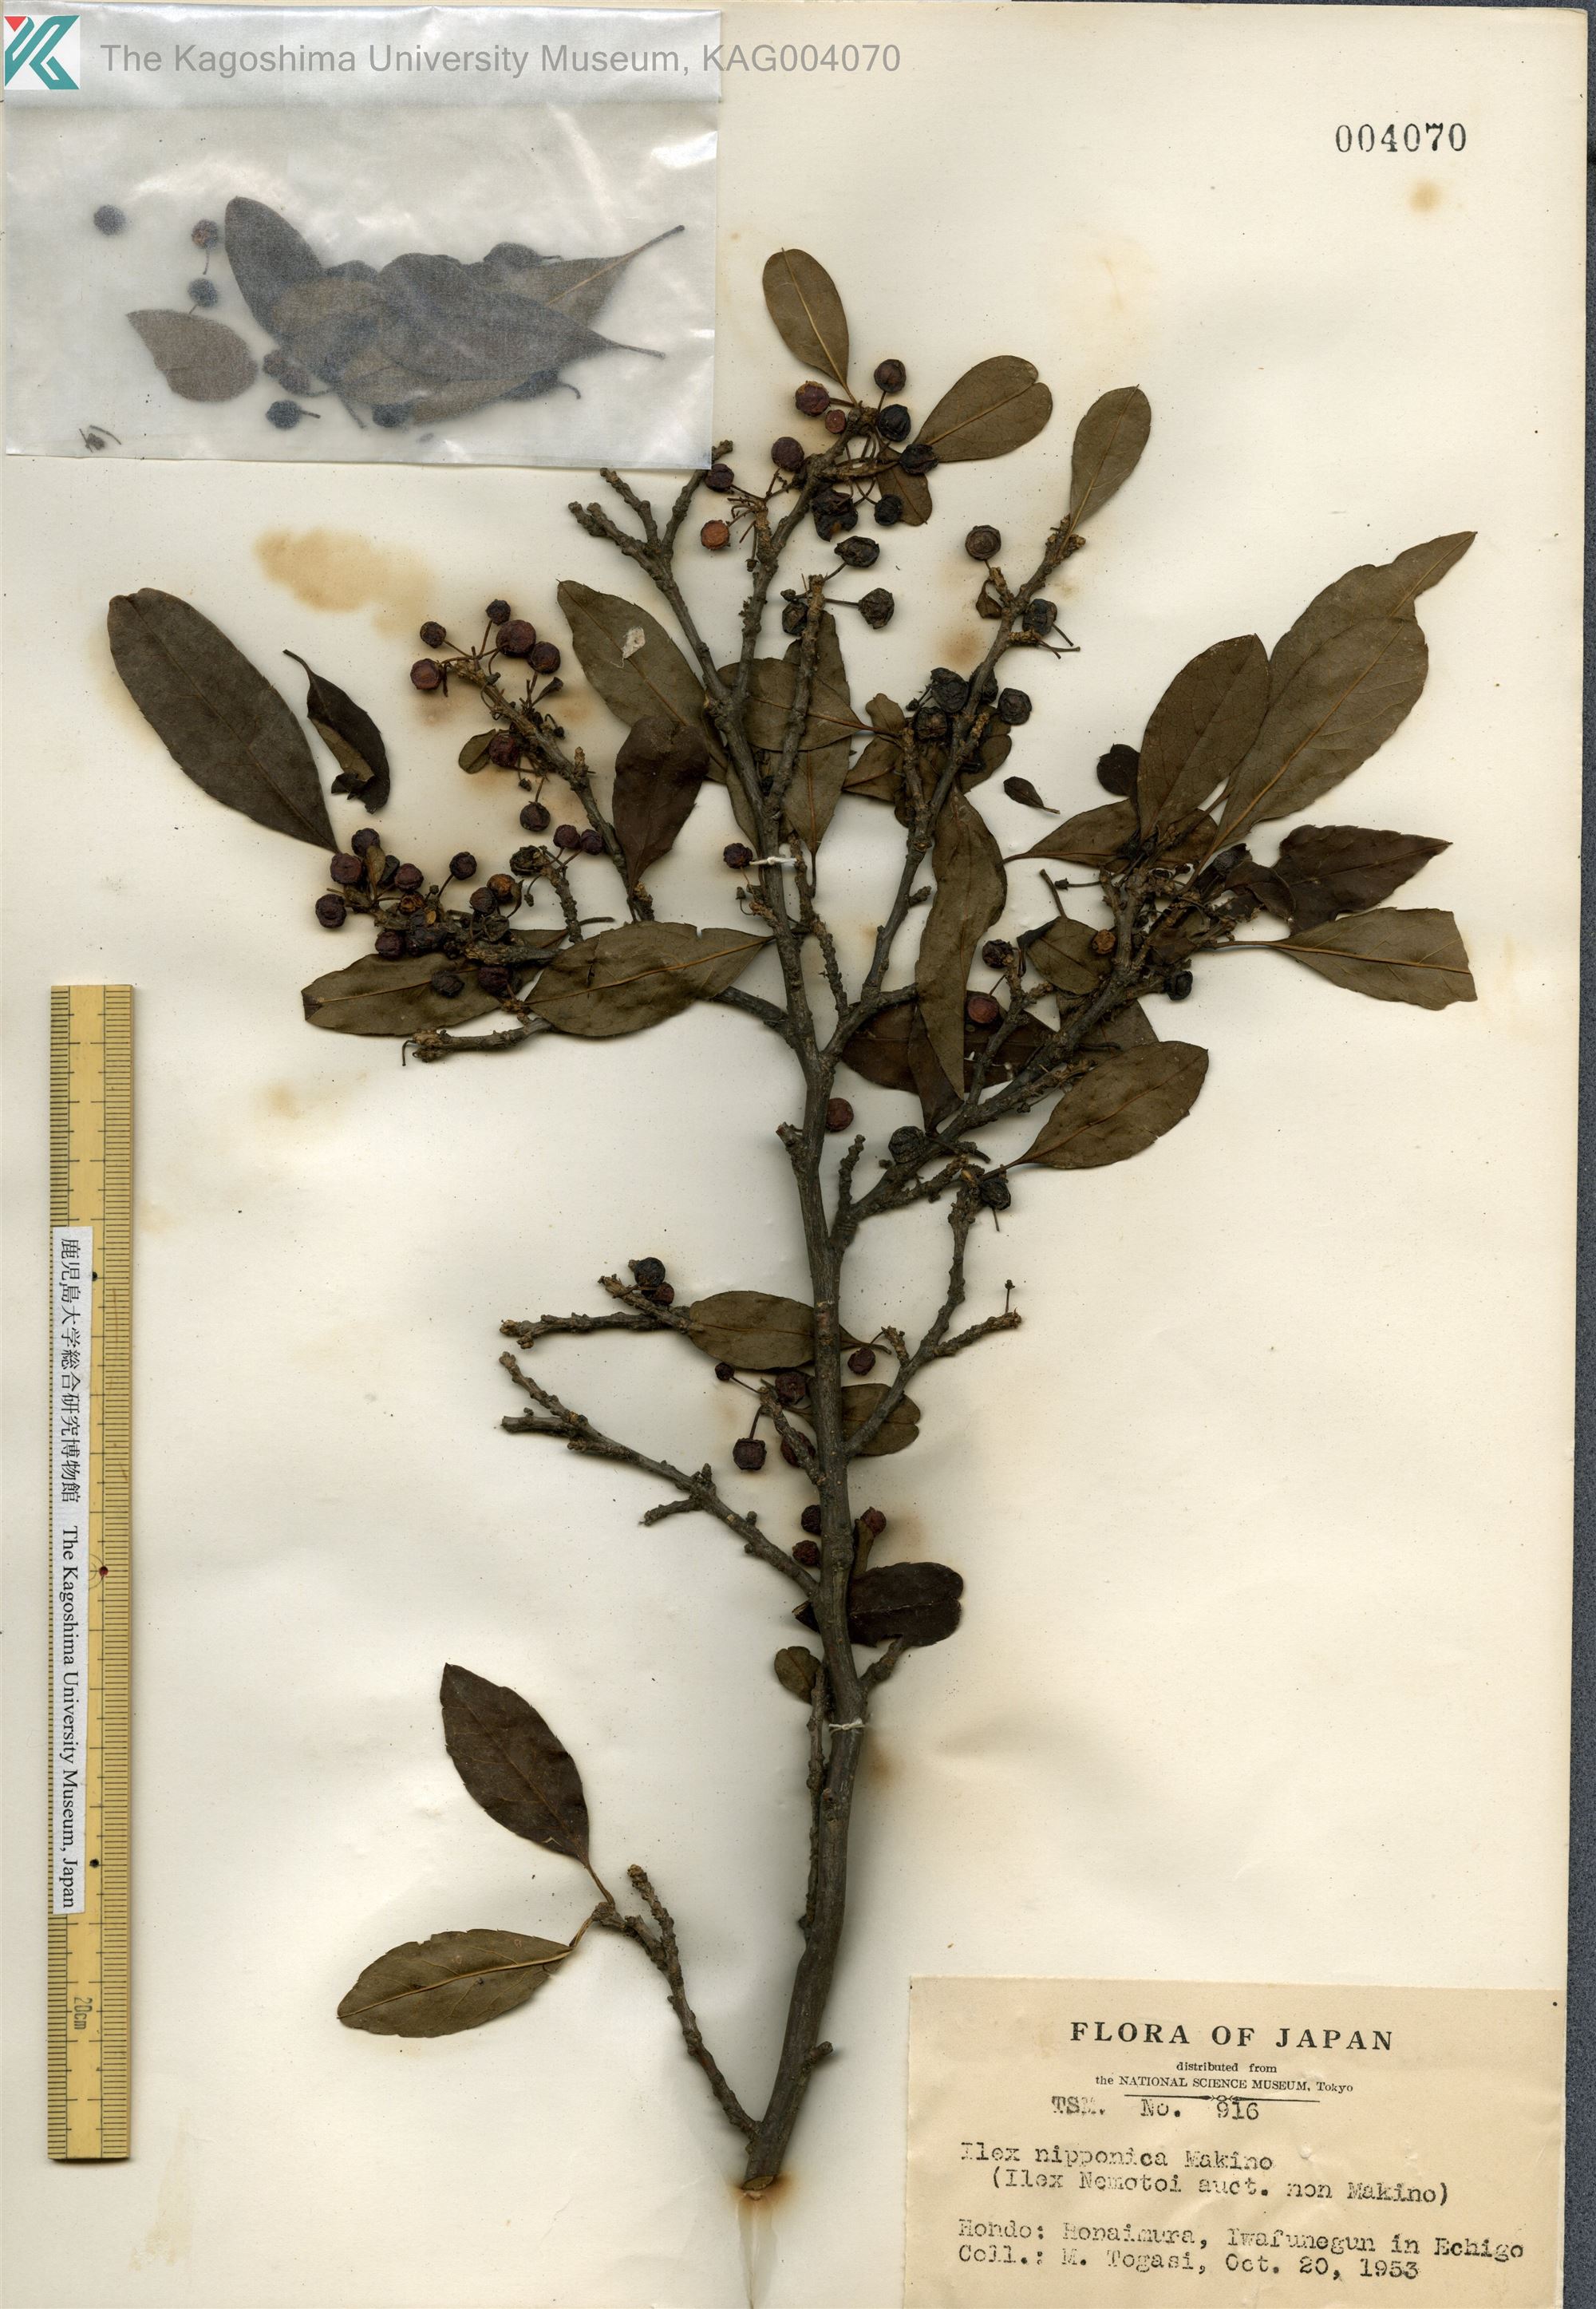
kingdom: Plantae
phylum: Tracheophyta
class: Magnoliopsida
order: Aquifoliales
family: Aquifoliaceae
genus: Ilex
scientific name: Ilex nipponica
